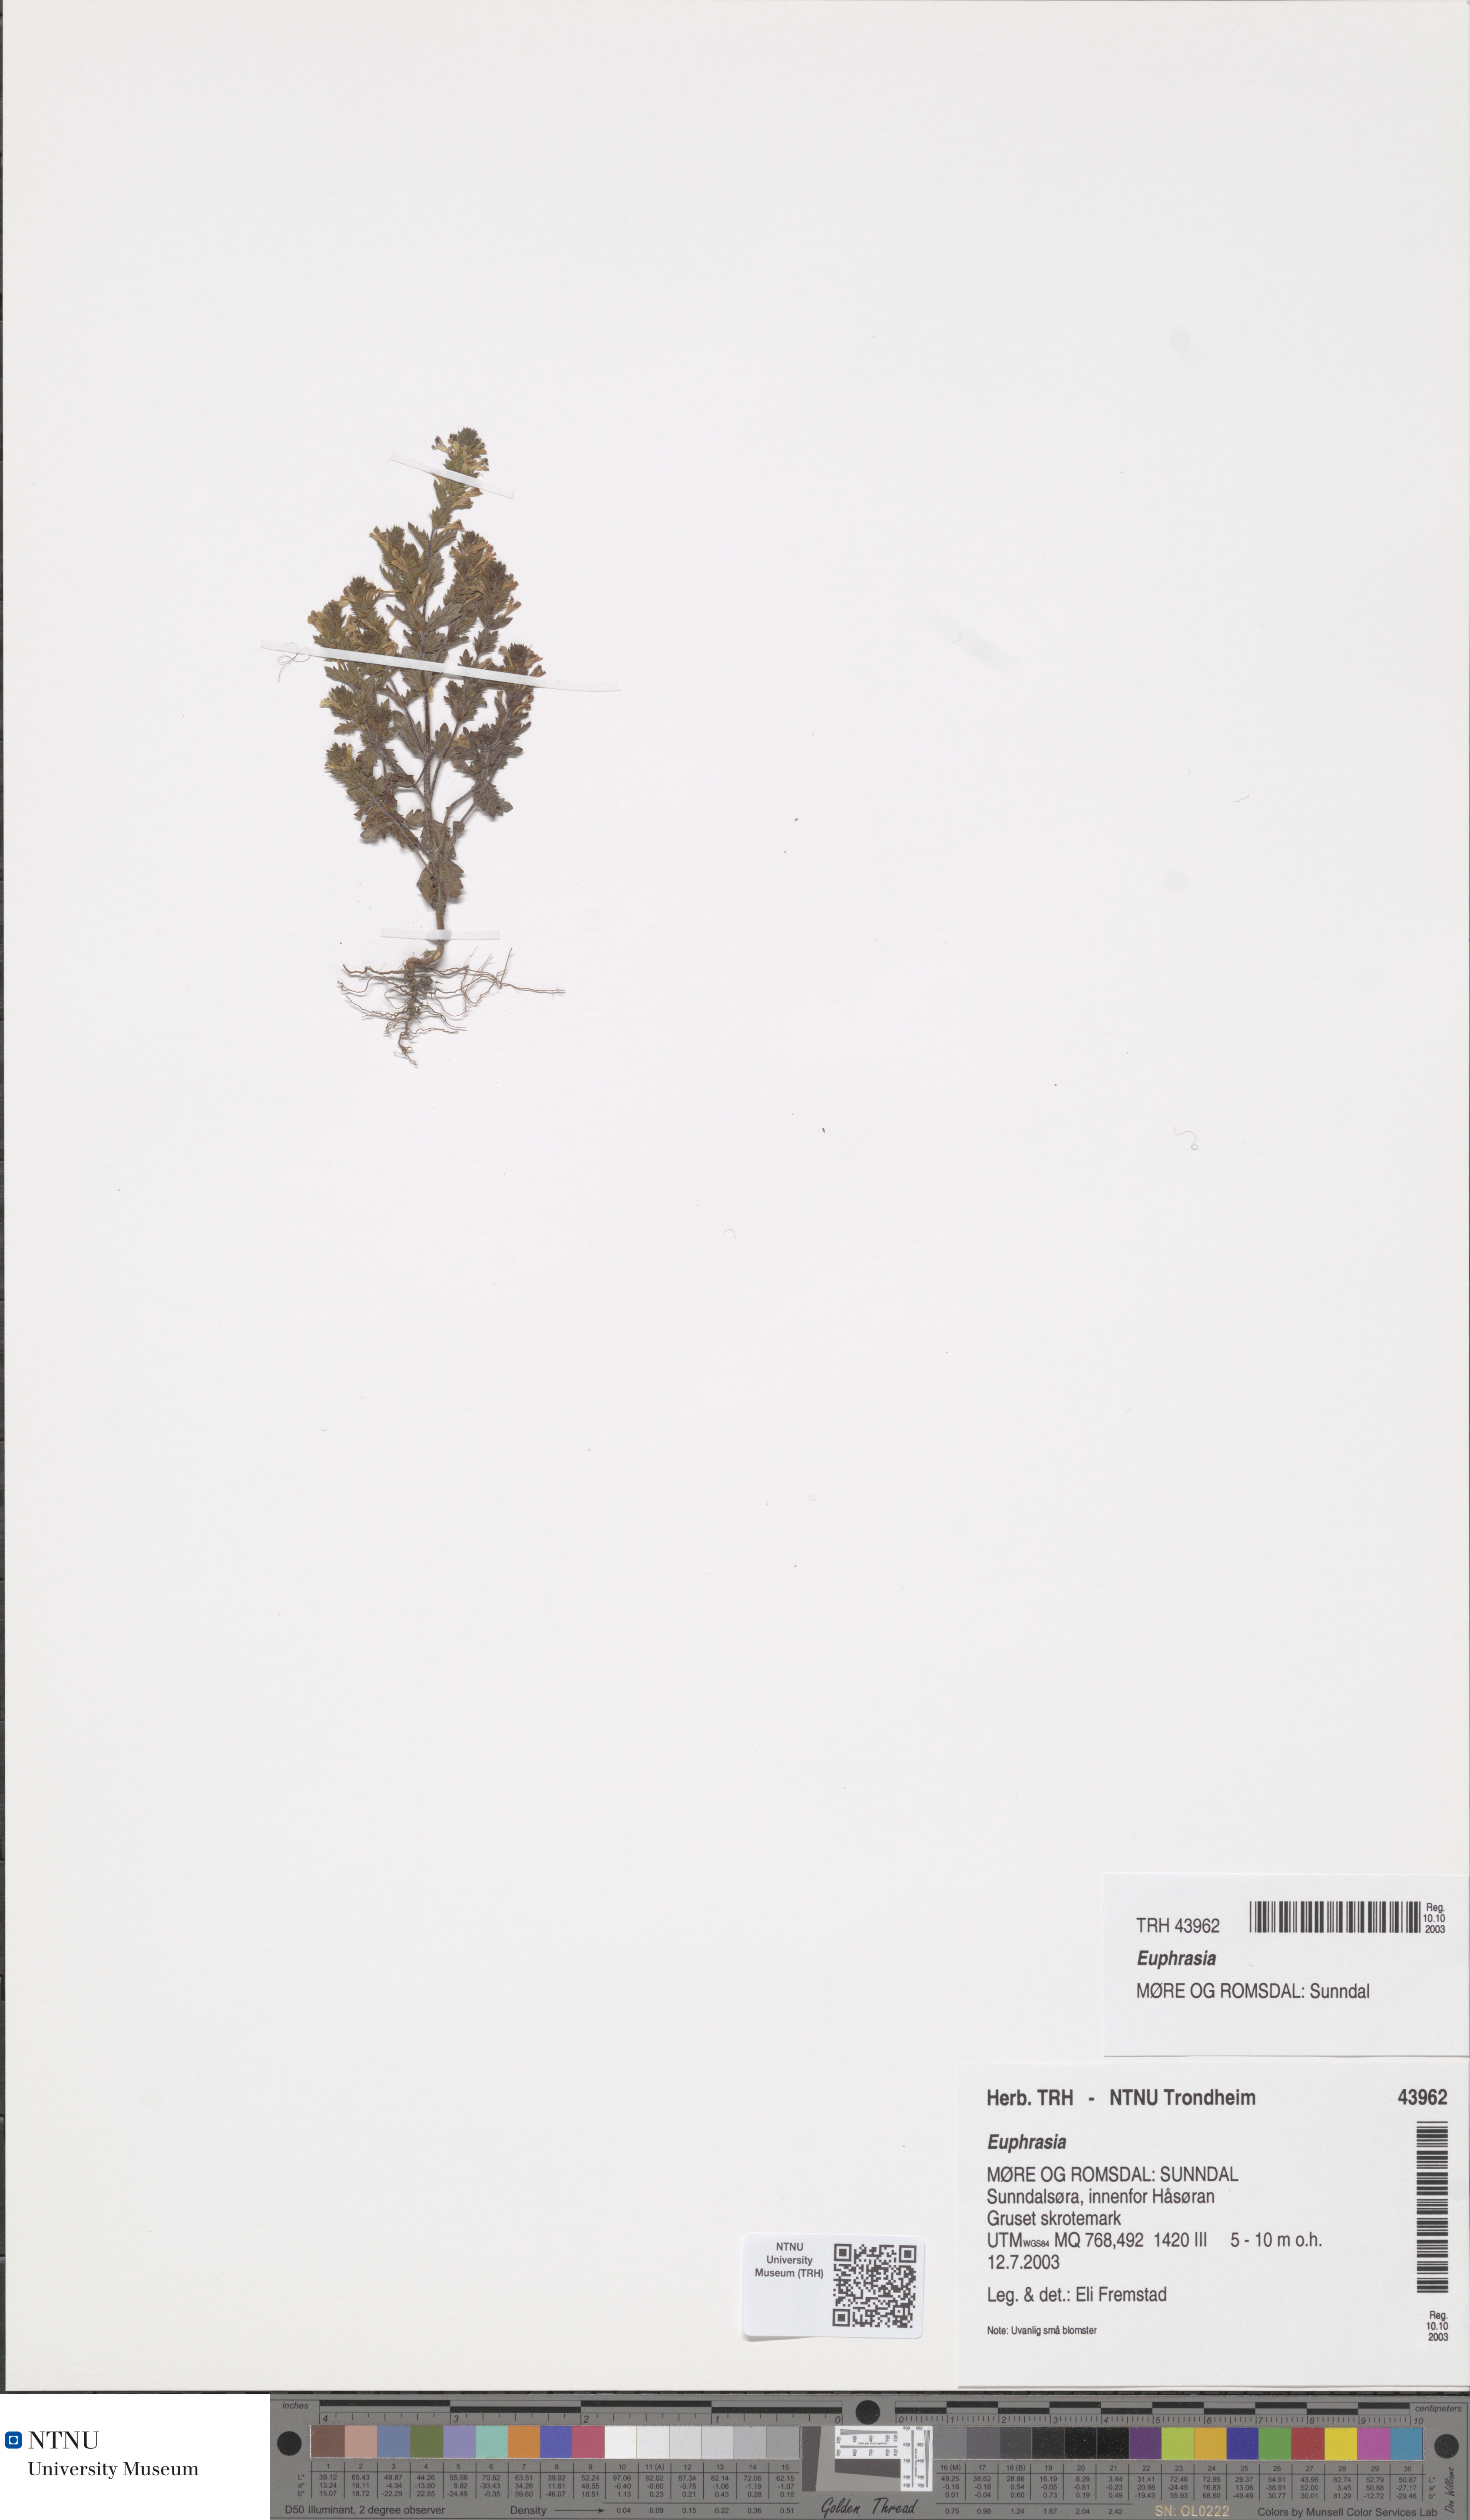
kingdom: Plantae
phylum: Tracheophyta
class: Magnoliopsida
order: Lamiales
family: Orobanchaceae
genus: Euphrasia
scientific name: Euphrasia
